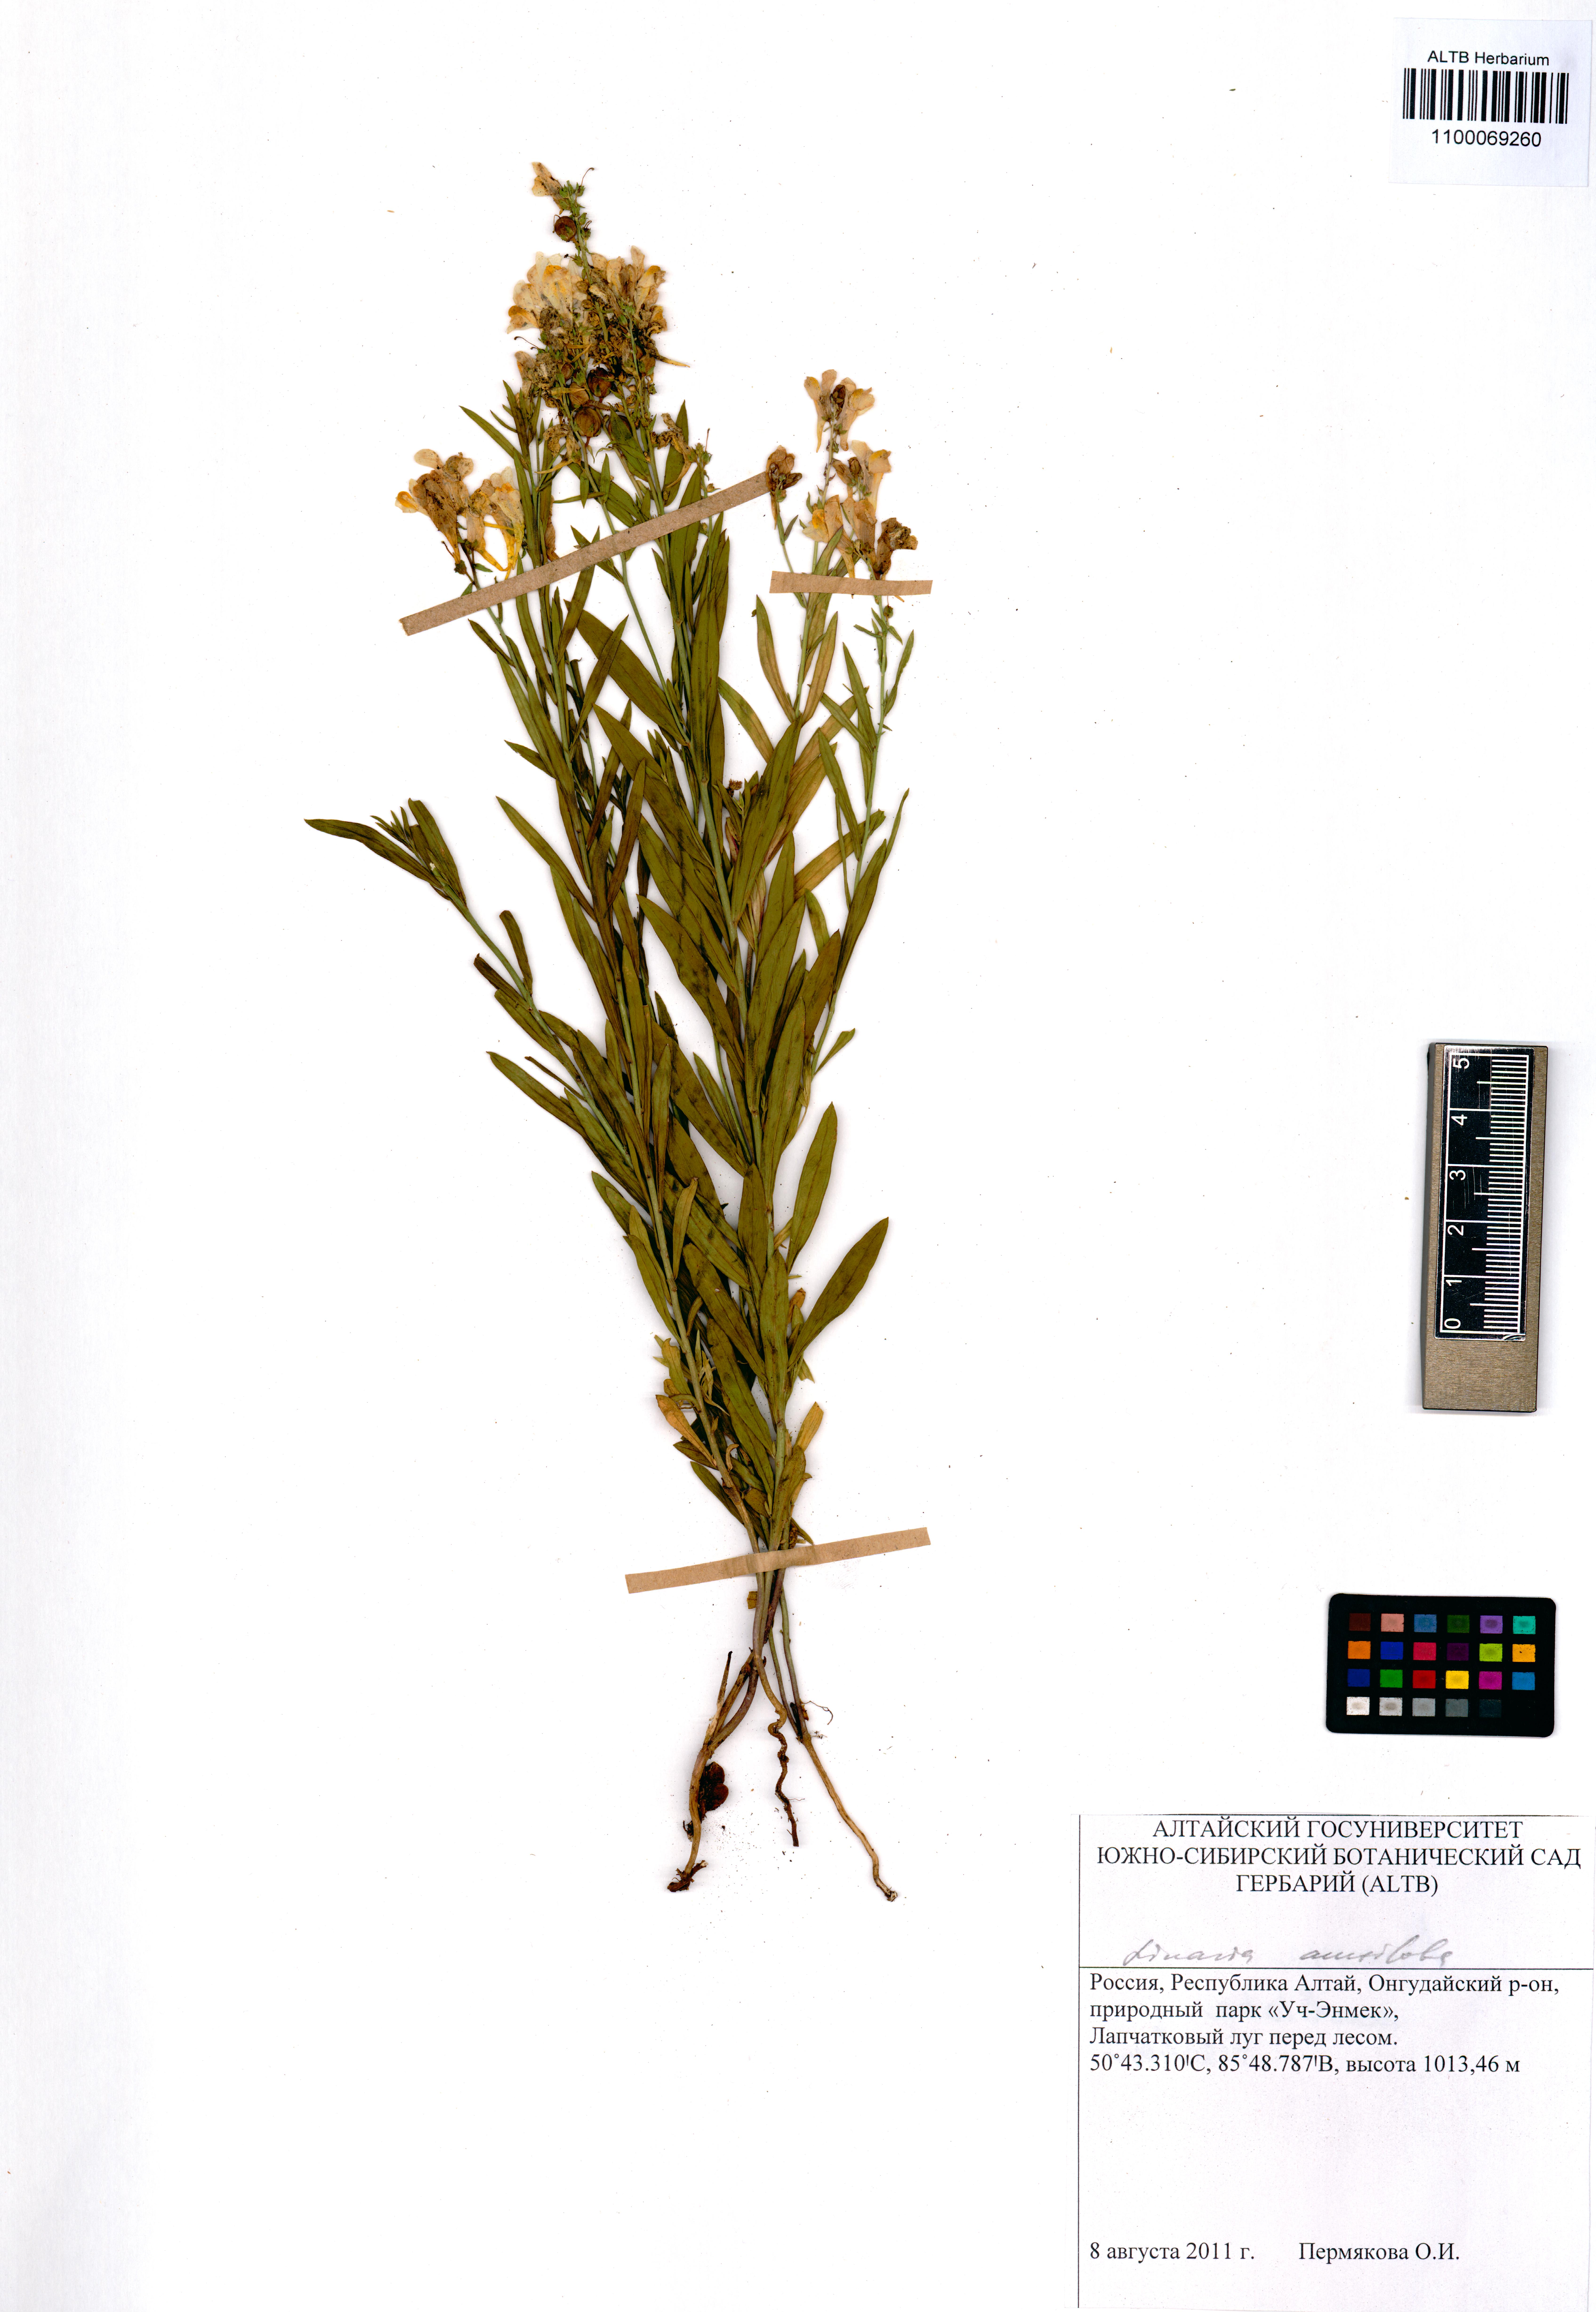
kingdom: Plantae
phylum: Tracheophyta
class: Magnoliopsida
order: Lamiales
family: Plantaginaceae
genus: Linaria
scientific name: Linaria acutiloba
